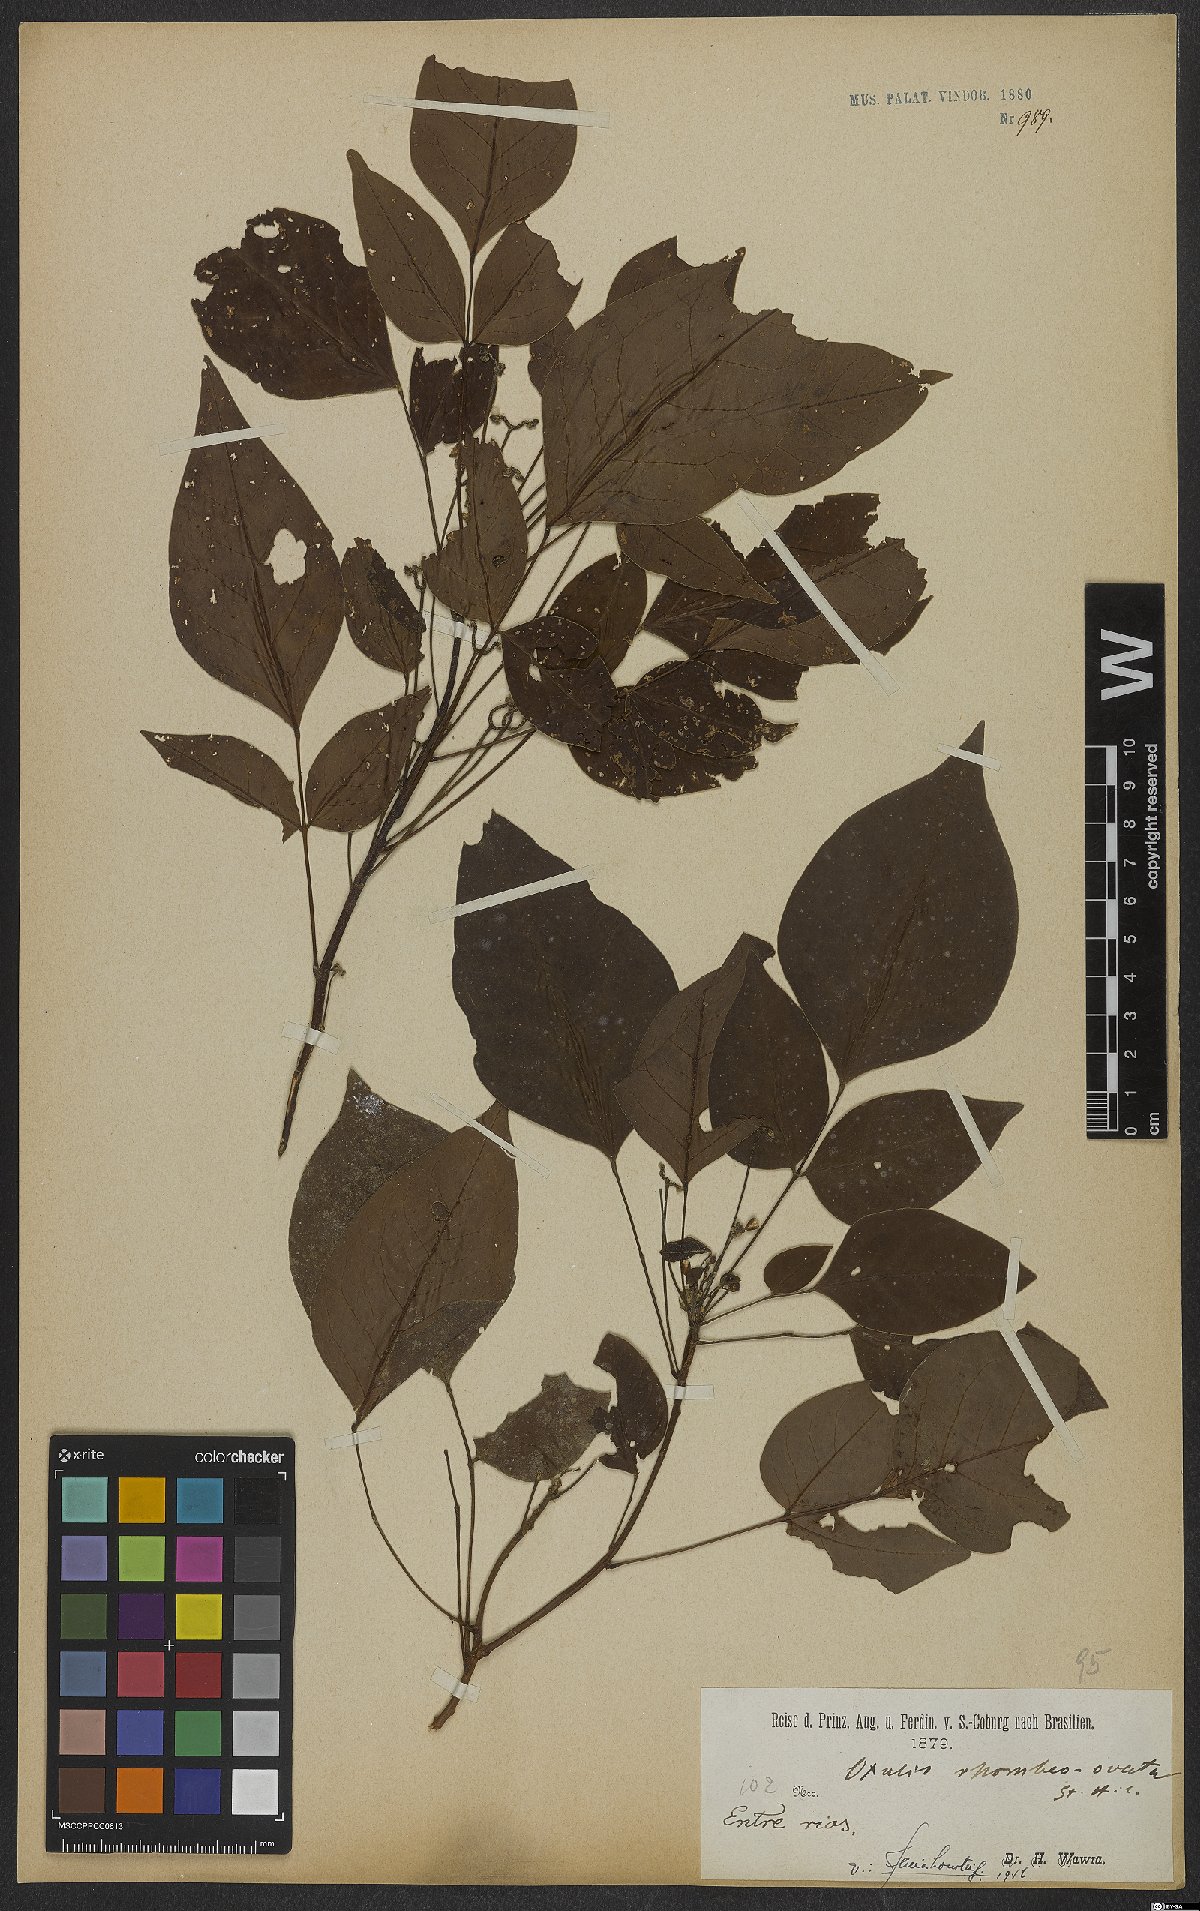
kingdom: Plantae
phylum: Tracheophyta
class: Magnoliopsida
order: Oxalidales
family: Oxalidaceae
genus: Oxalis
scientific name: Oxalis rhombeo-ovata
